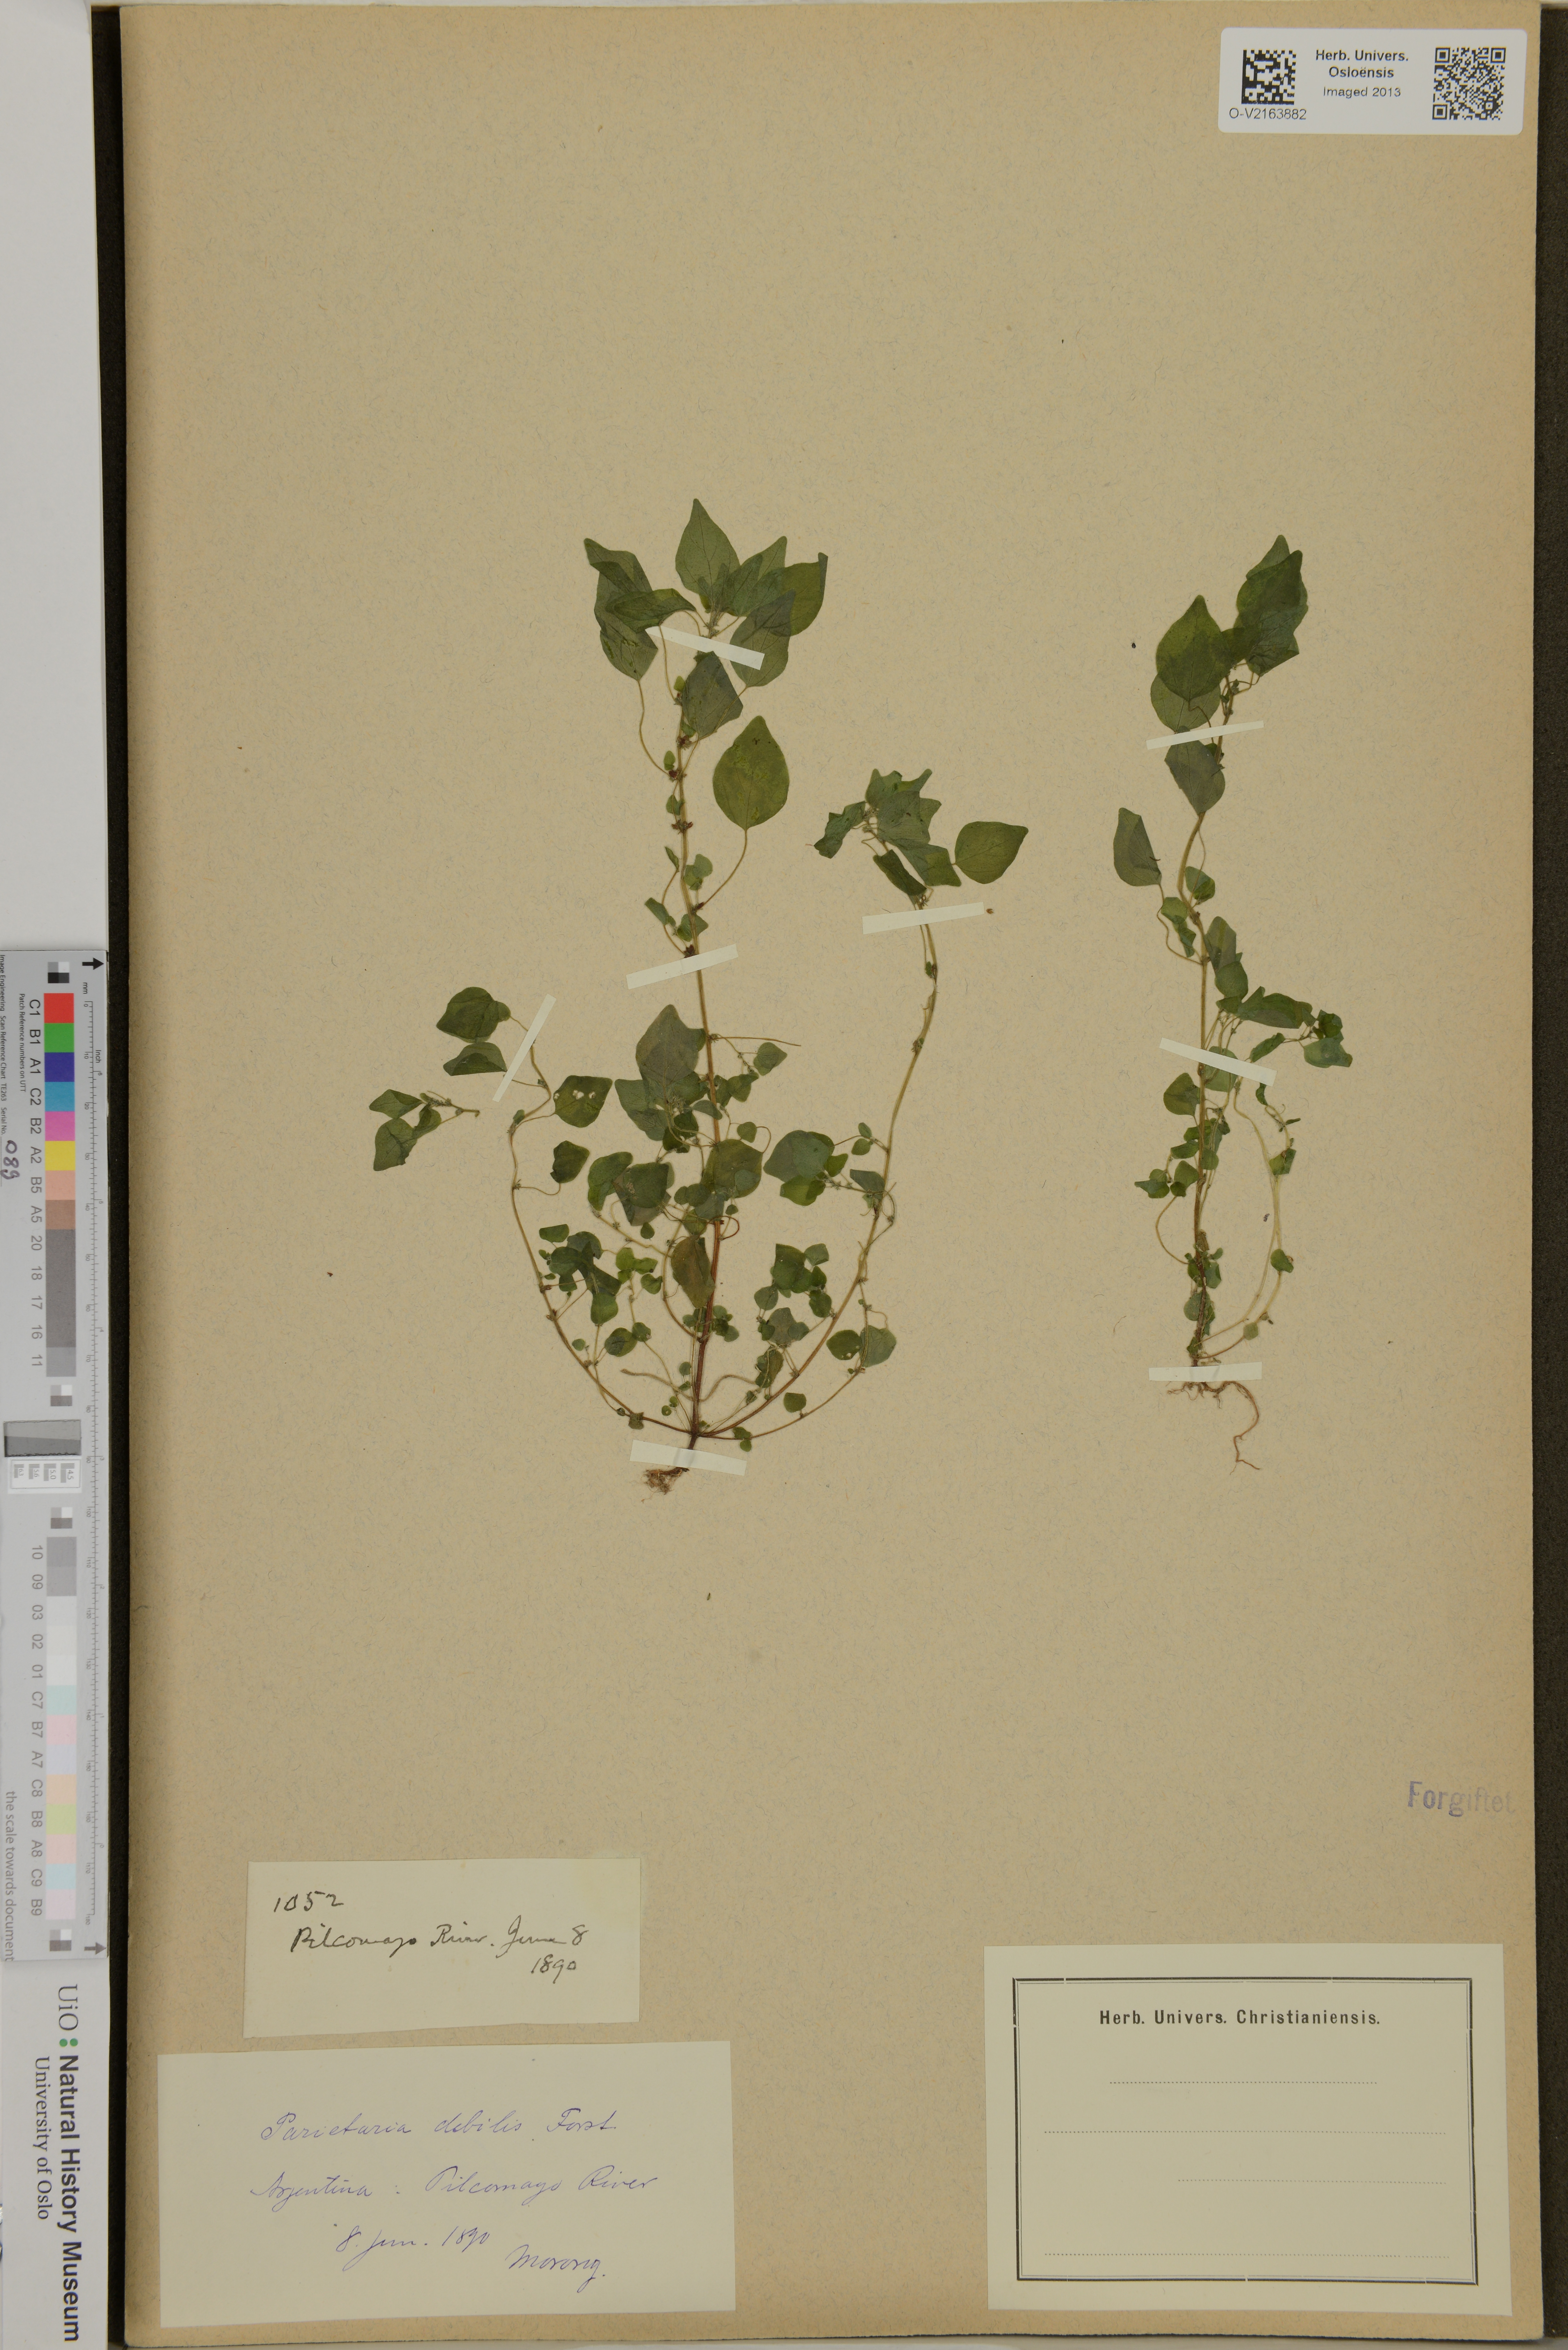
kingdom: Plantae
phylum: Tracheophyta
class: Magnoliopsida
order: Rosales
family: Urticaceae
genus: Parietaria
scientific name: Parietaria debilis
